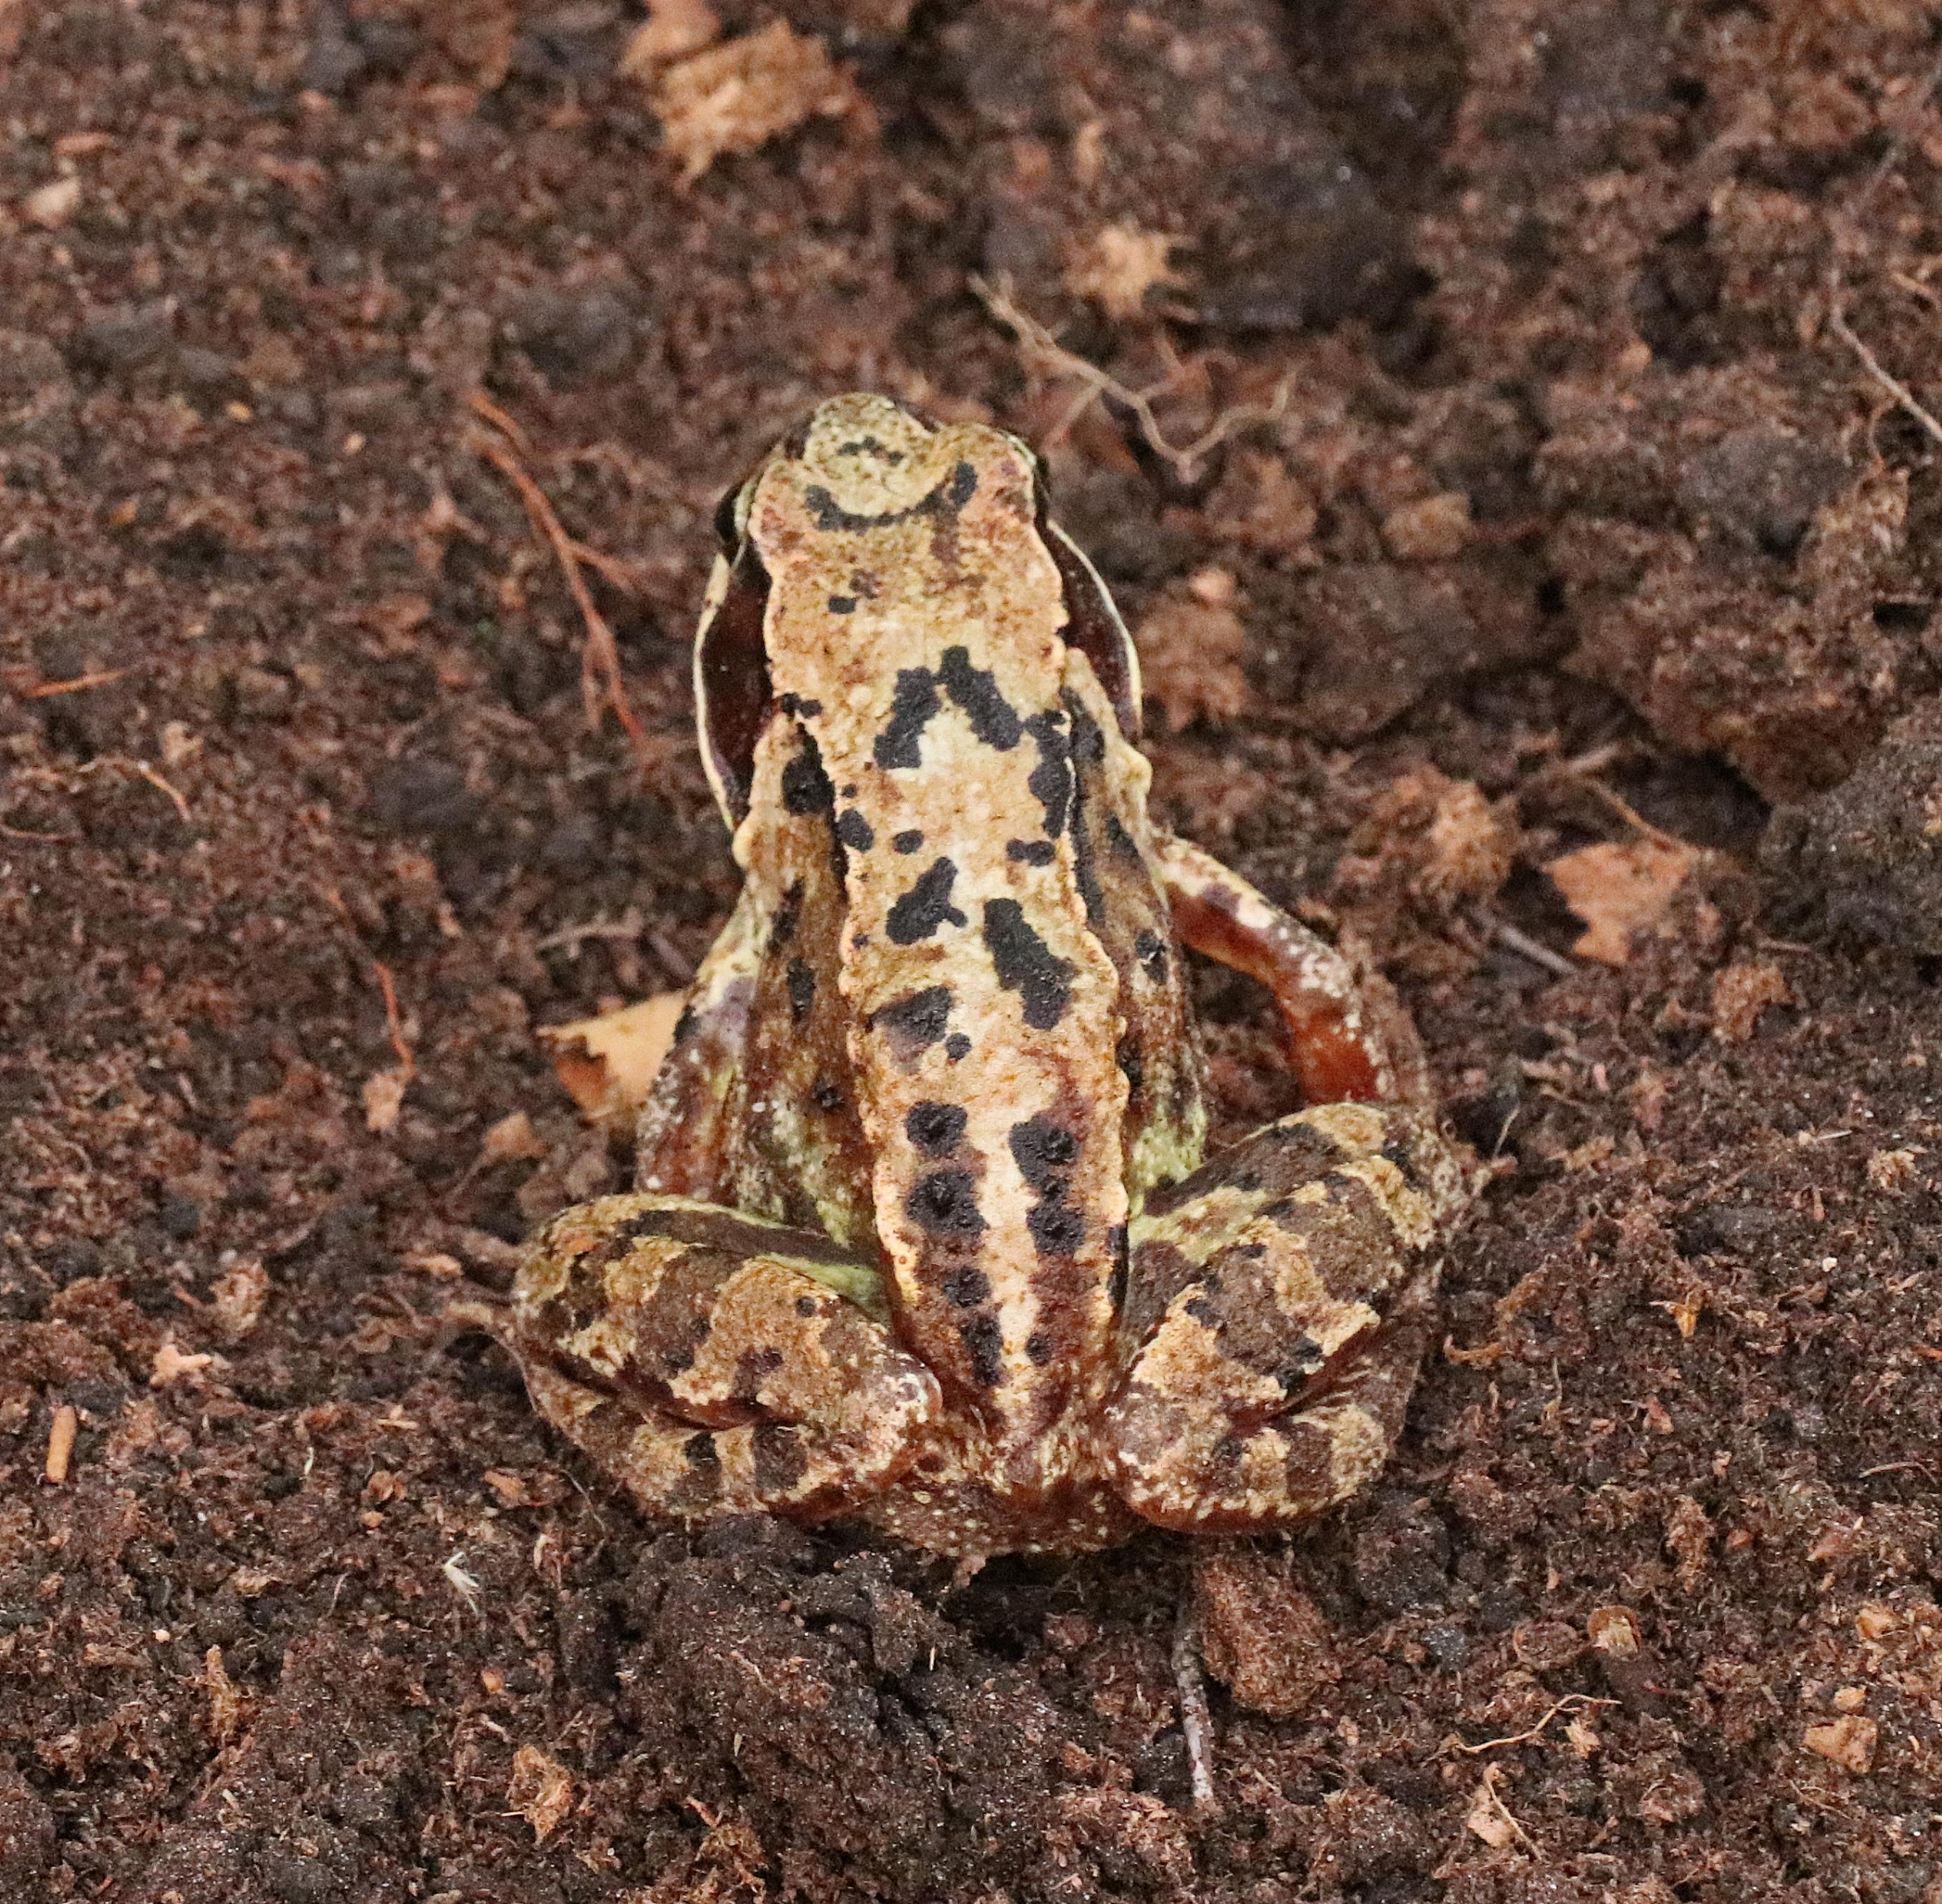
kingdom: Animalia
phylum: Chordata
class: Amphibia
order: Anura
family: Ranidae
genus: Rana
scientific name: Rana temporaria
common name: Butsnudet frø
